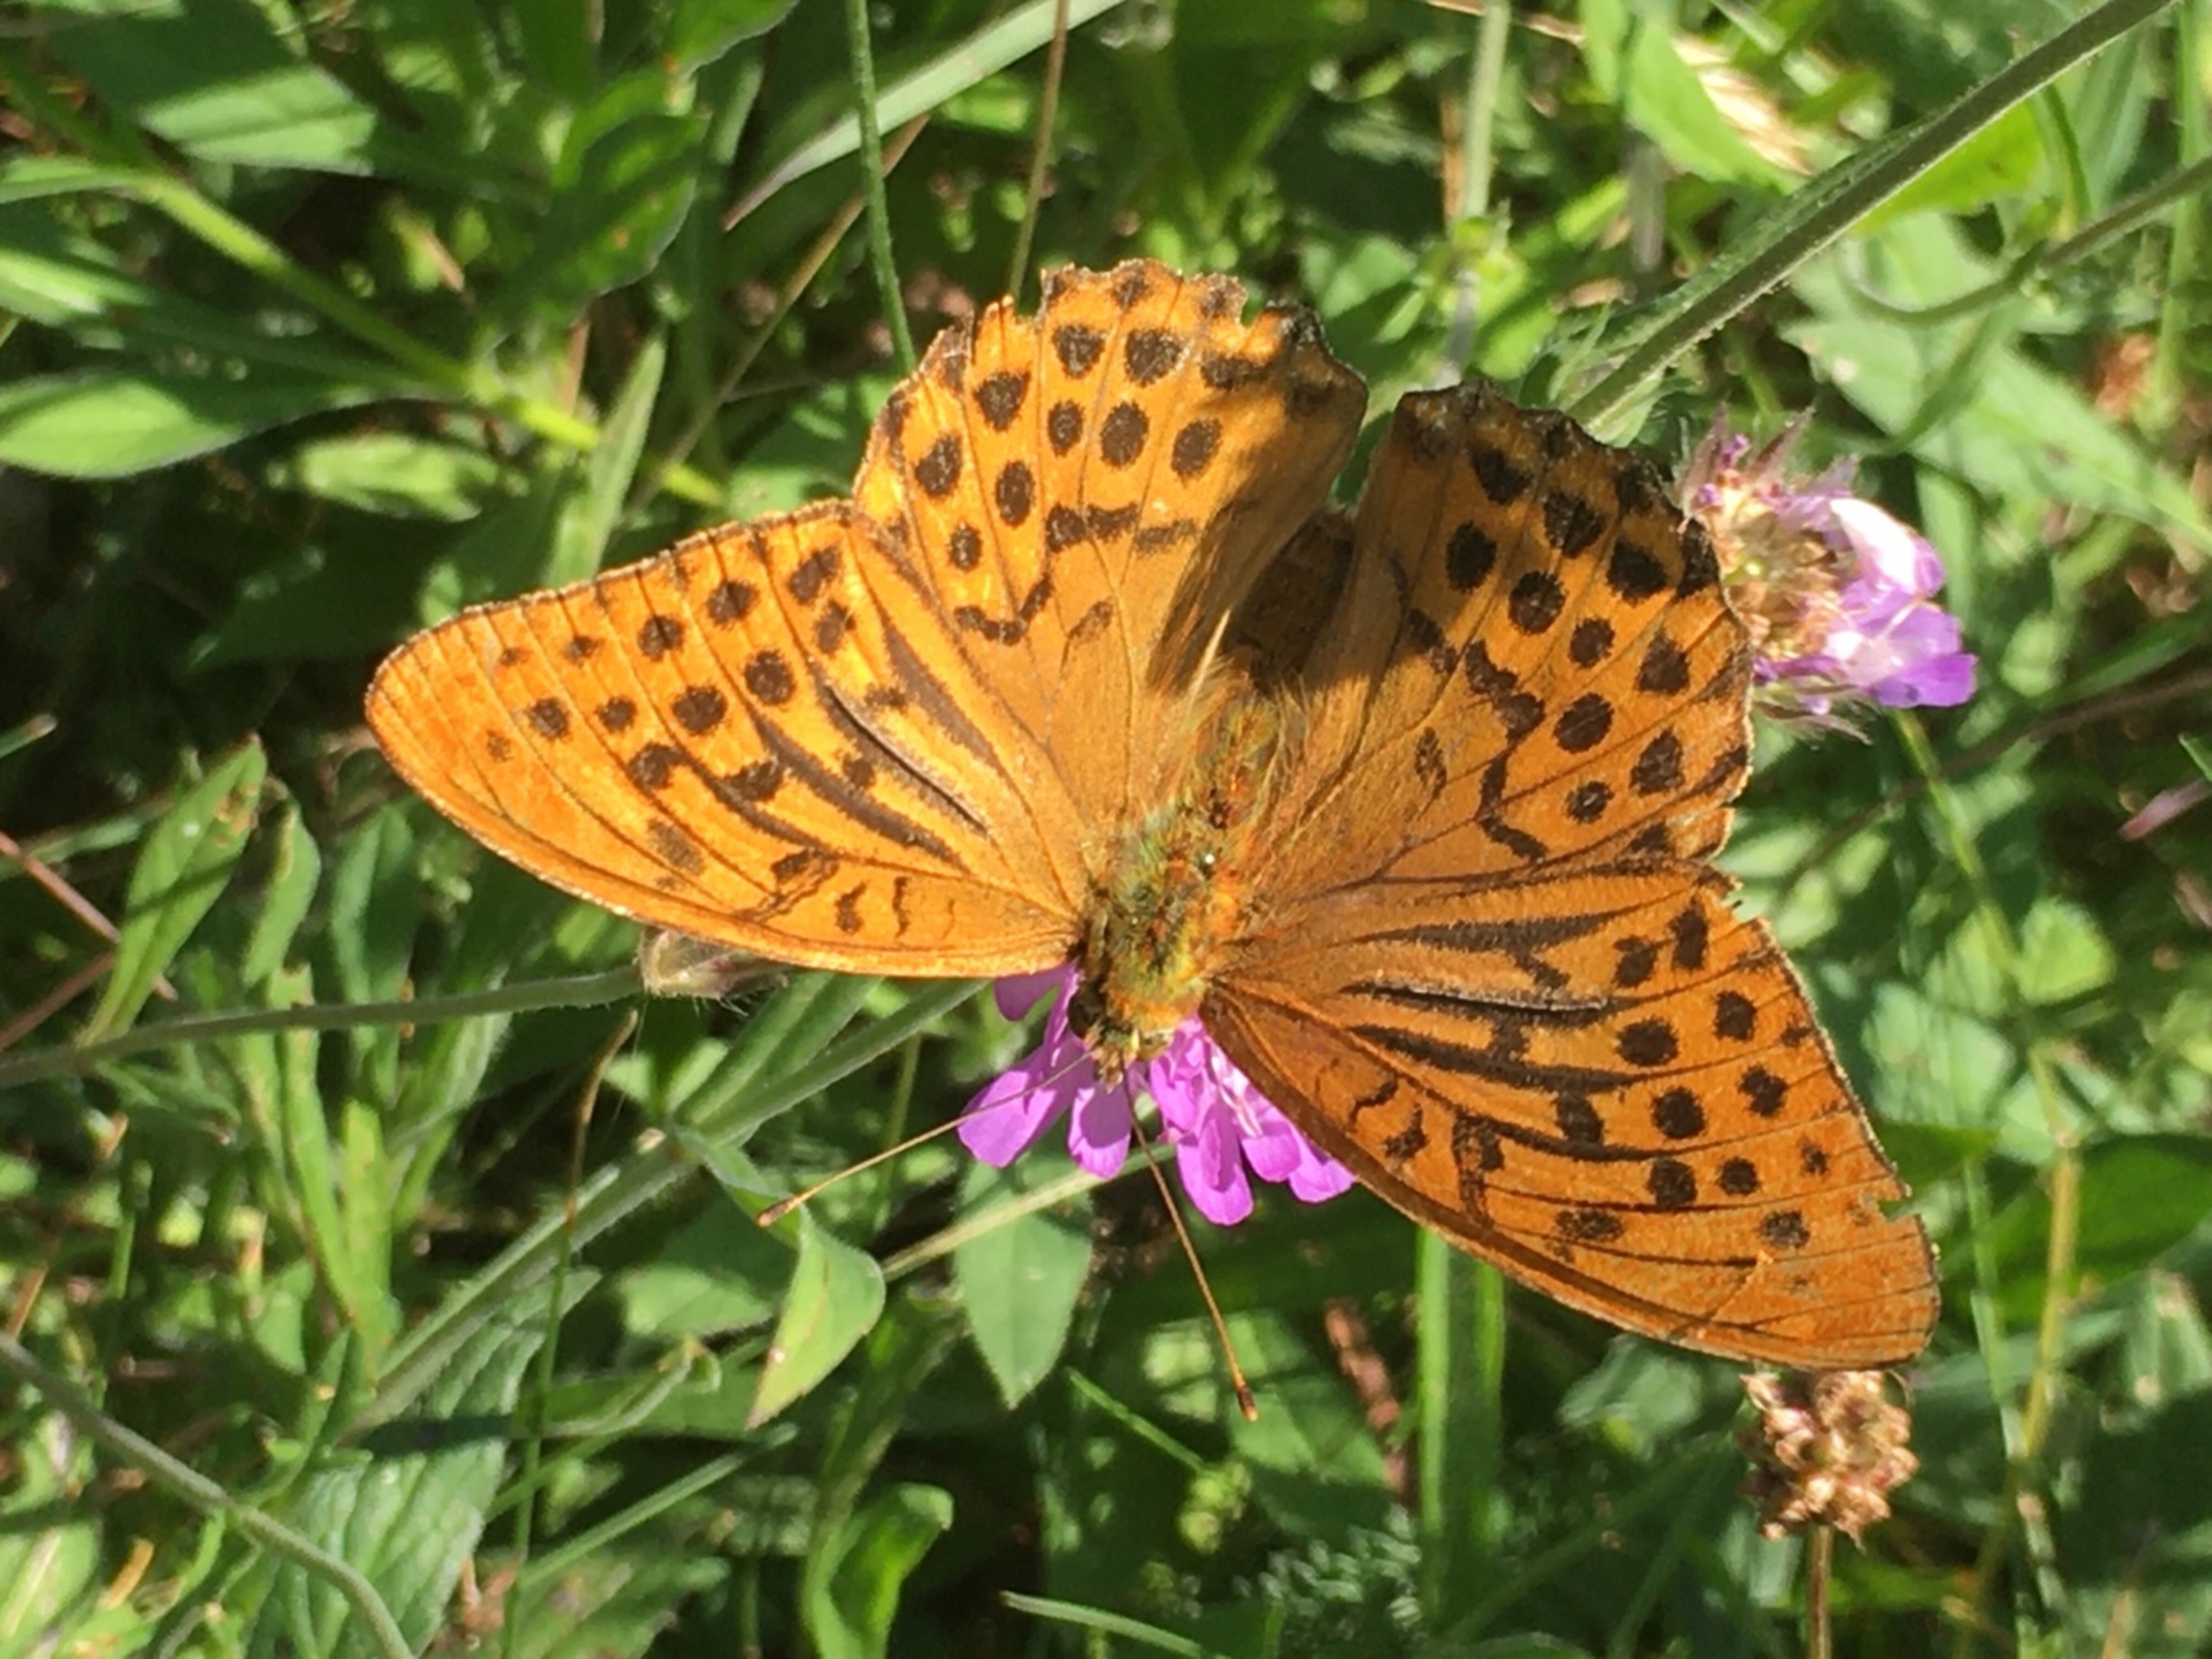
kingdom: Animalia
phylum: Arthropoda
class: Insecta
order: Lepidoptera
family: Nymphalidae
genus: Argynnis
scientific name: Argynnis paphia
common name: Kejserkåbe
